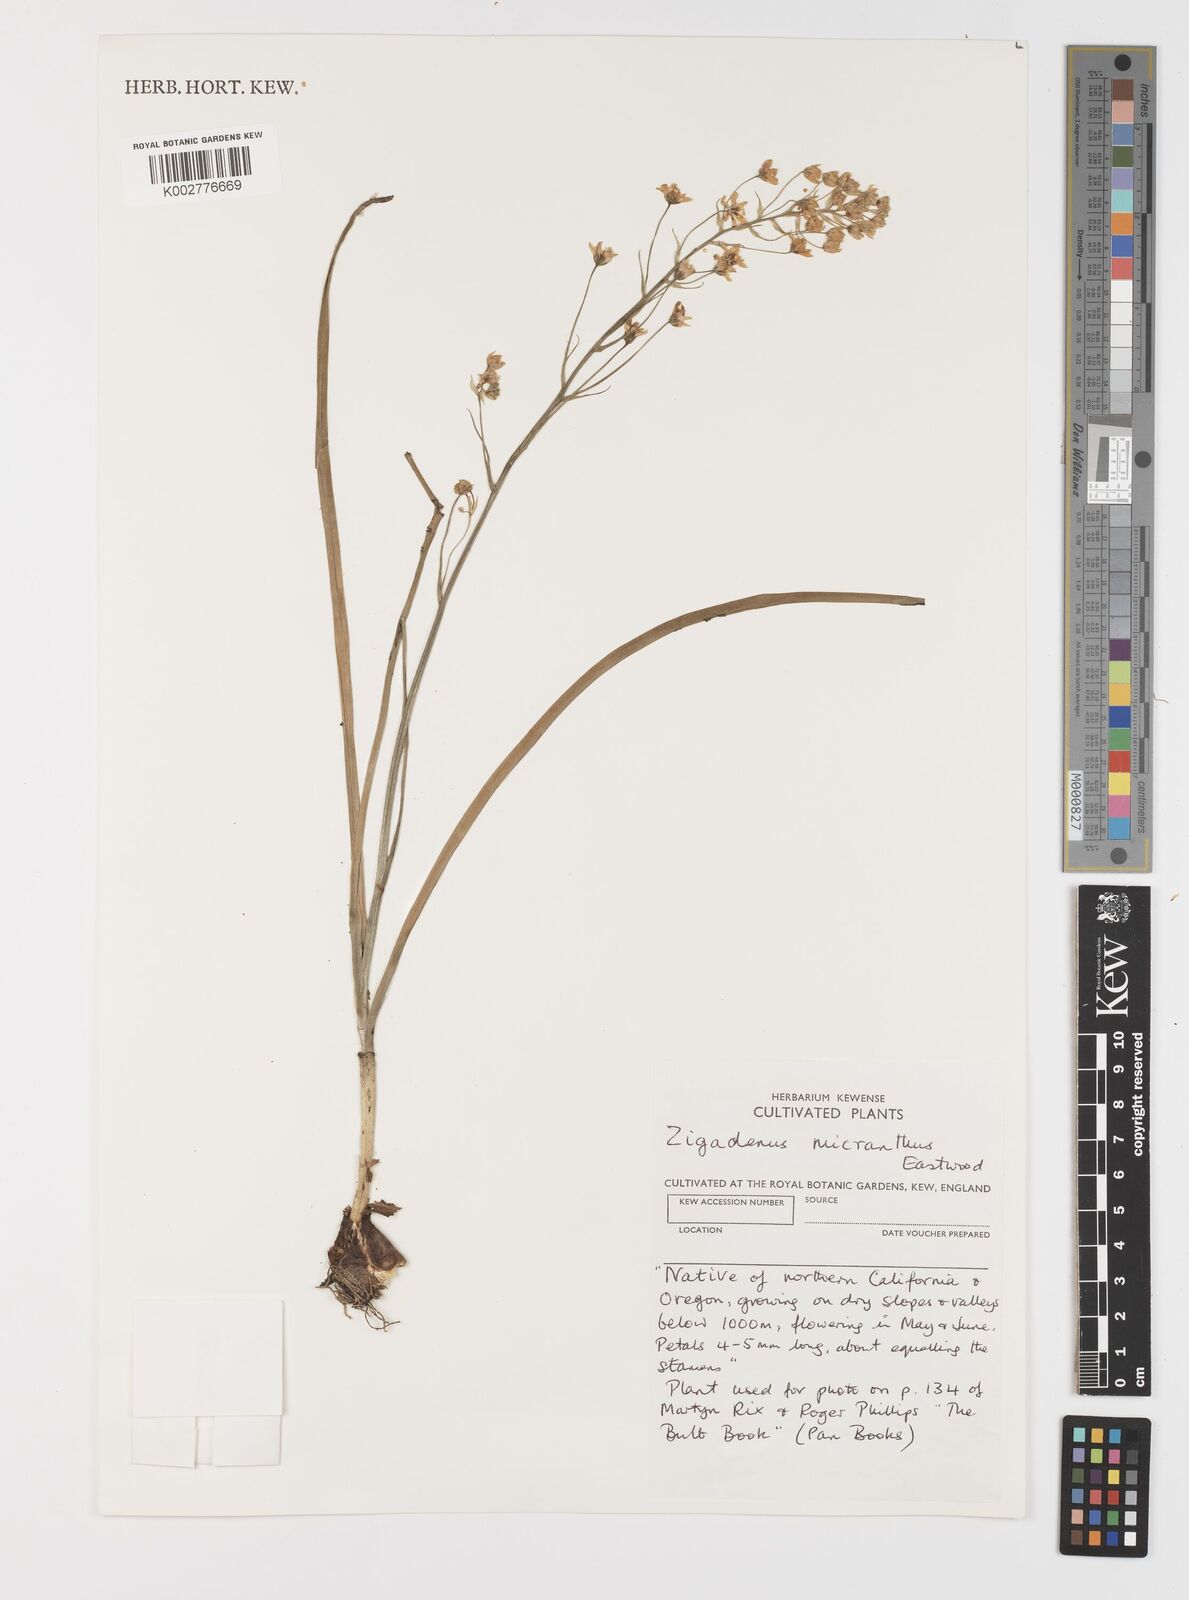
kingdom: Plantae
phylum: Tracheophyta
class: Liliopsida
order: Liliales
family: Melanthiaceae
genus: Toxicoscordion
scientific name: Toxicoscordion micranthum
